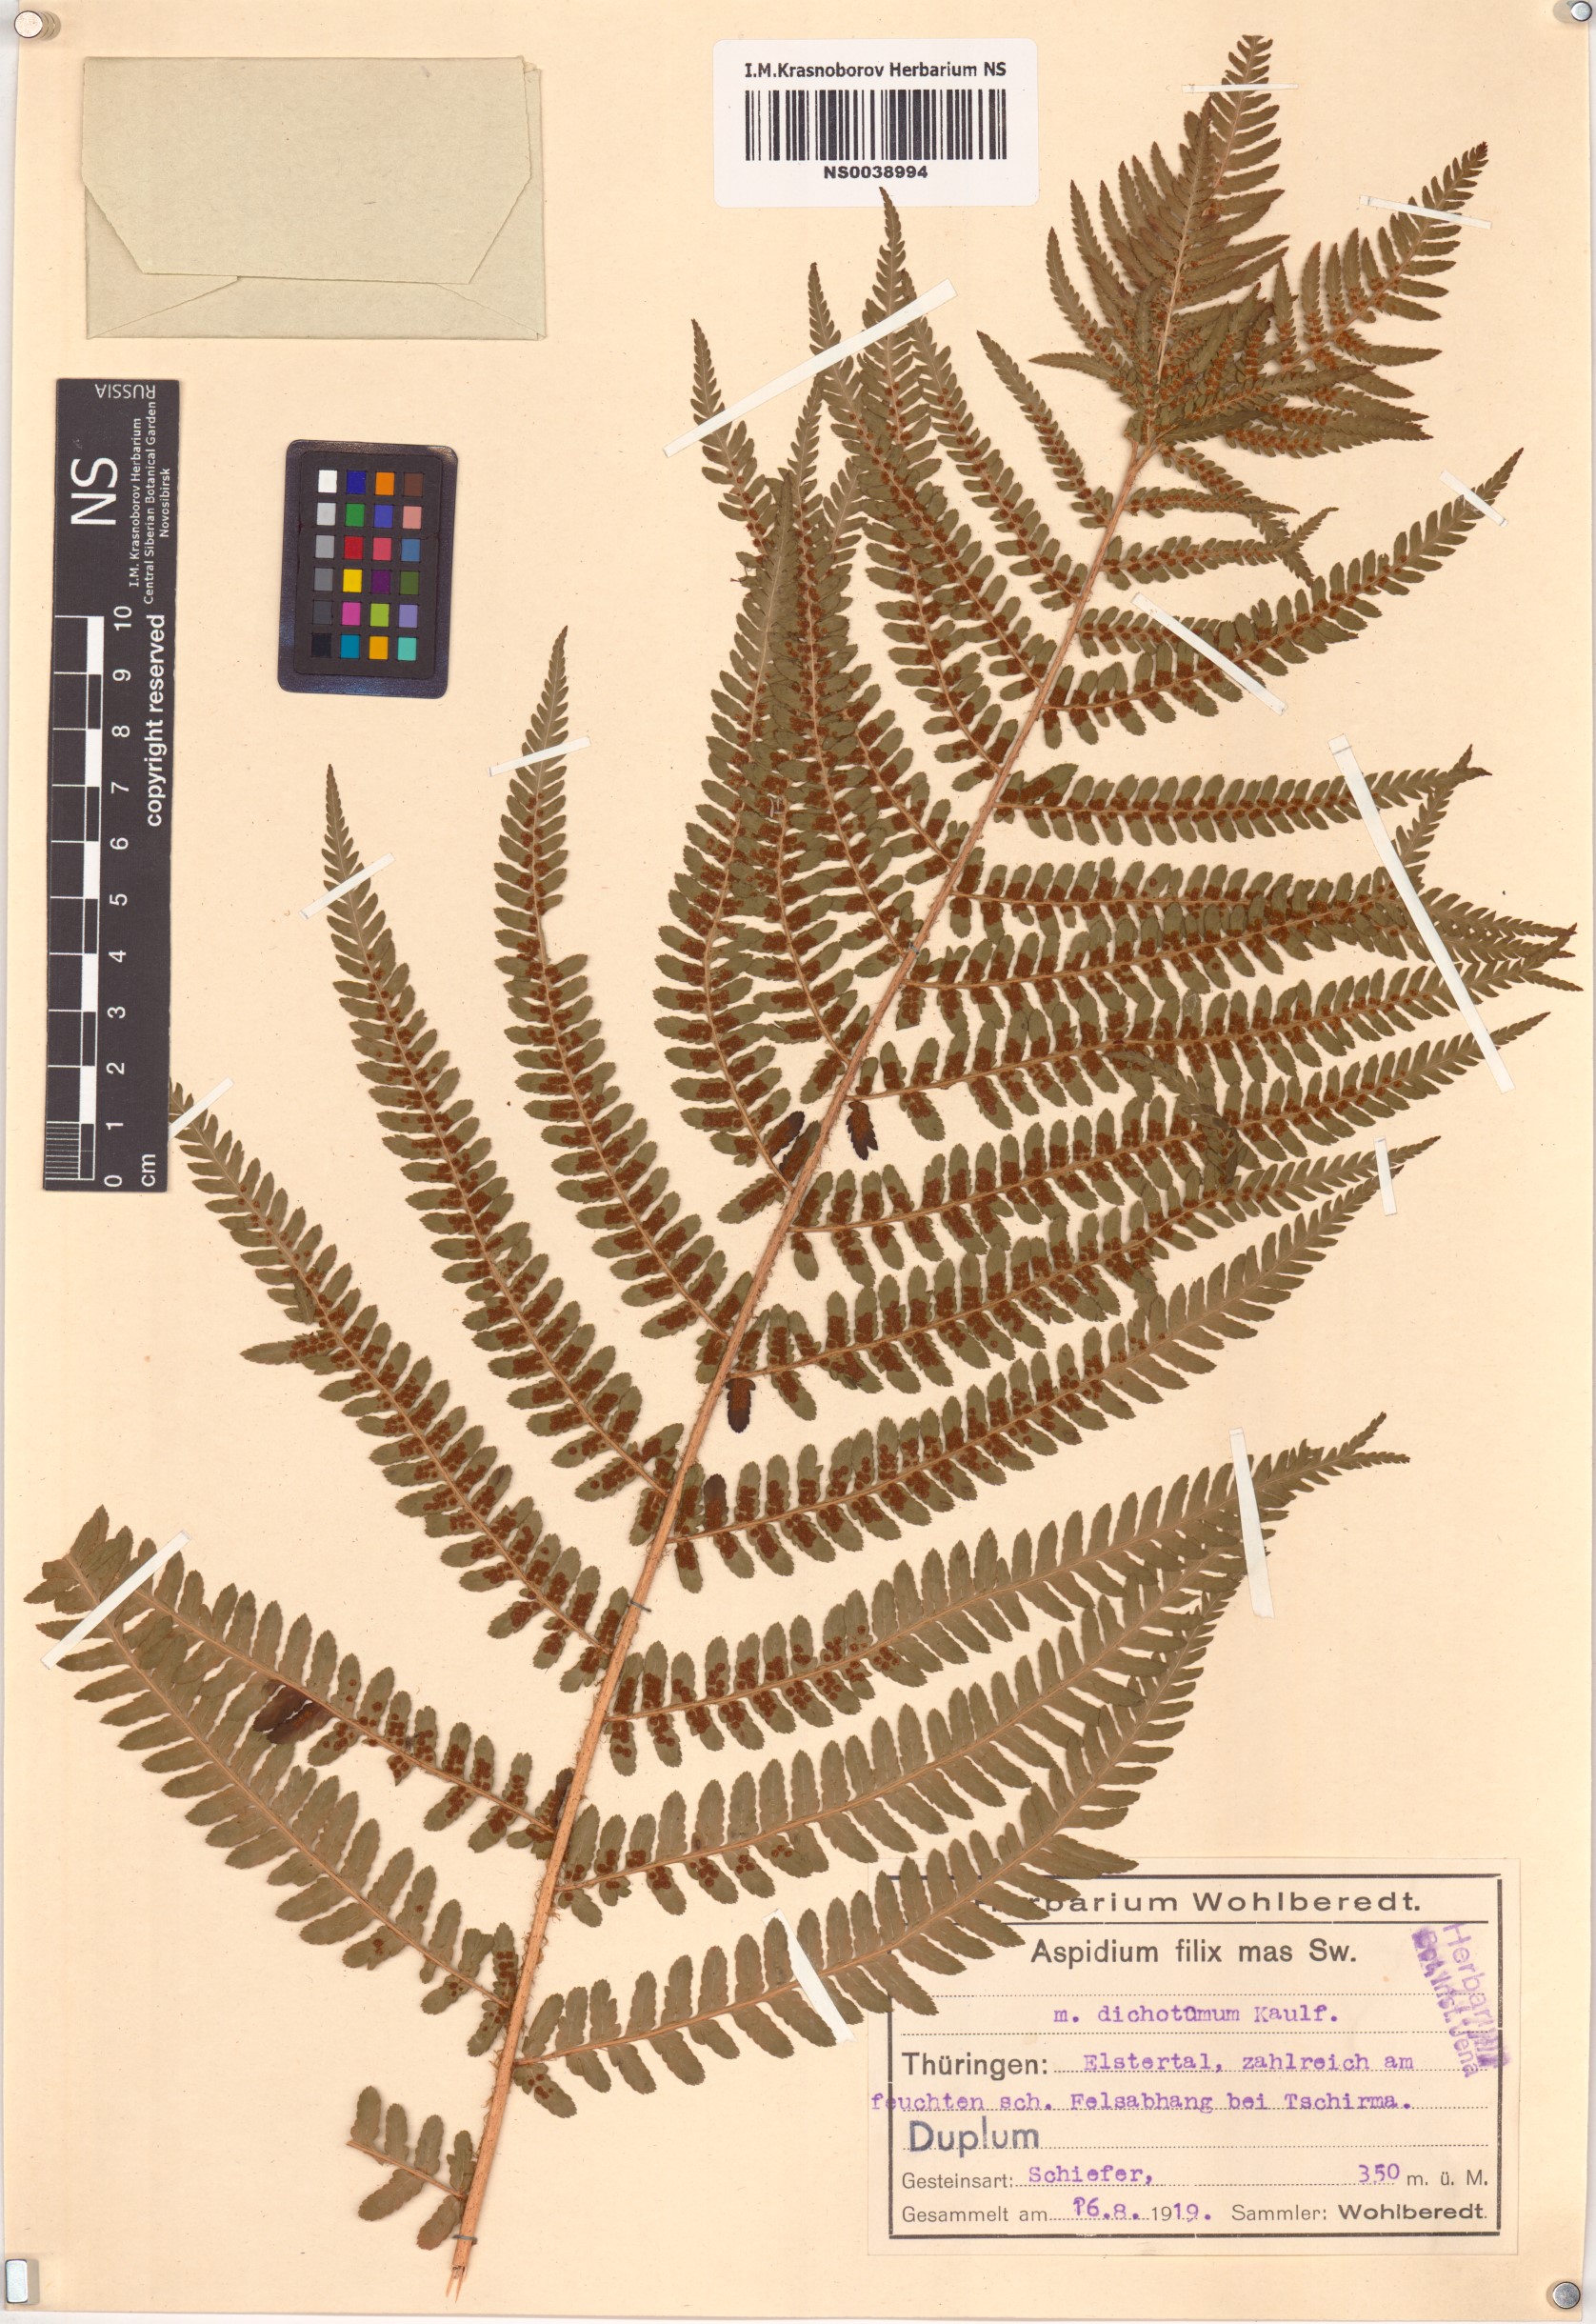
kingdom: Plantae
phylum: Tracheophyta
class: Polypodiopsida
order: Polypodiales
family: Dryopteridaceae
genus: Dryopteris
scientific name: Dryopteris filix-mas
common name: Male fern
